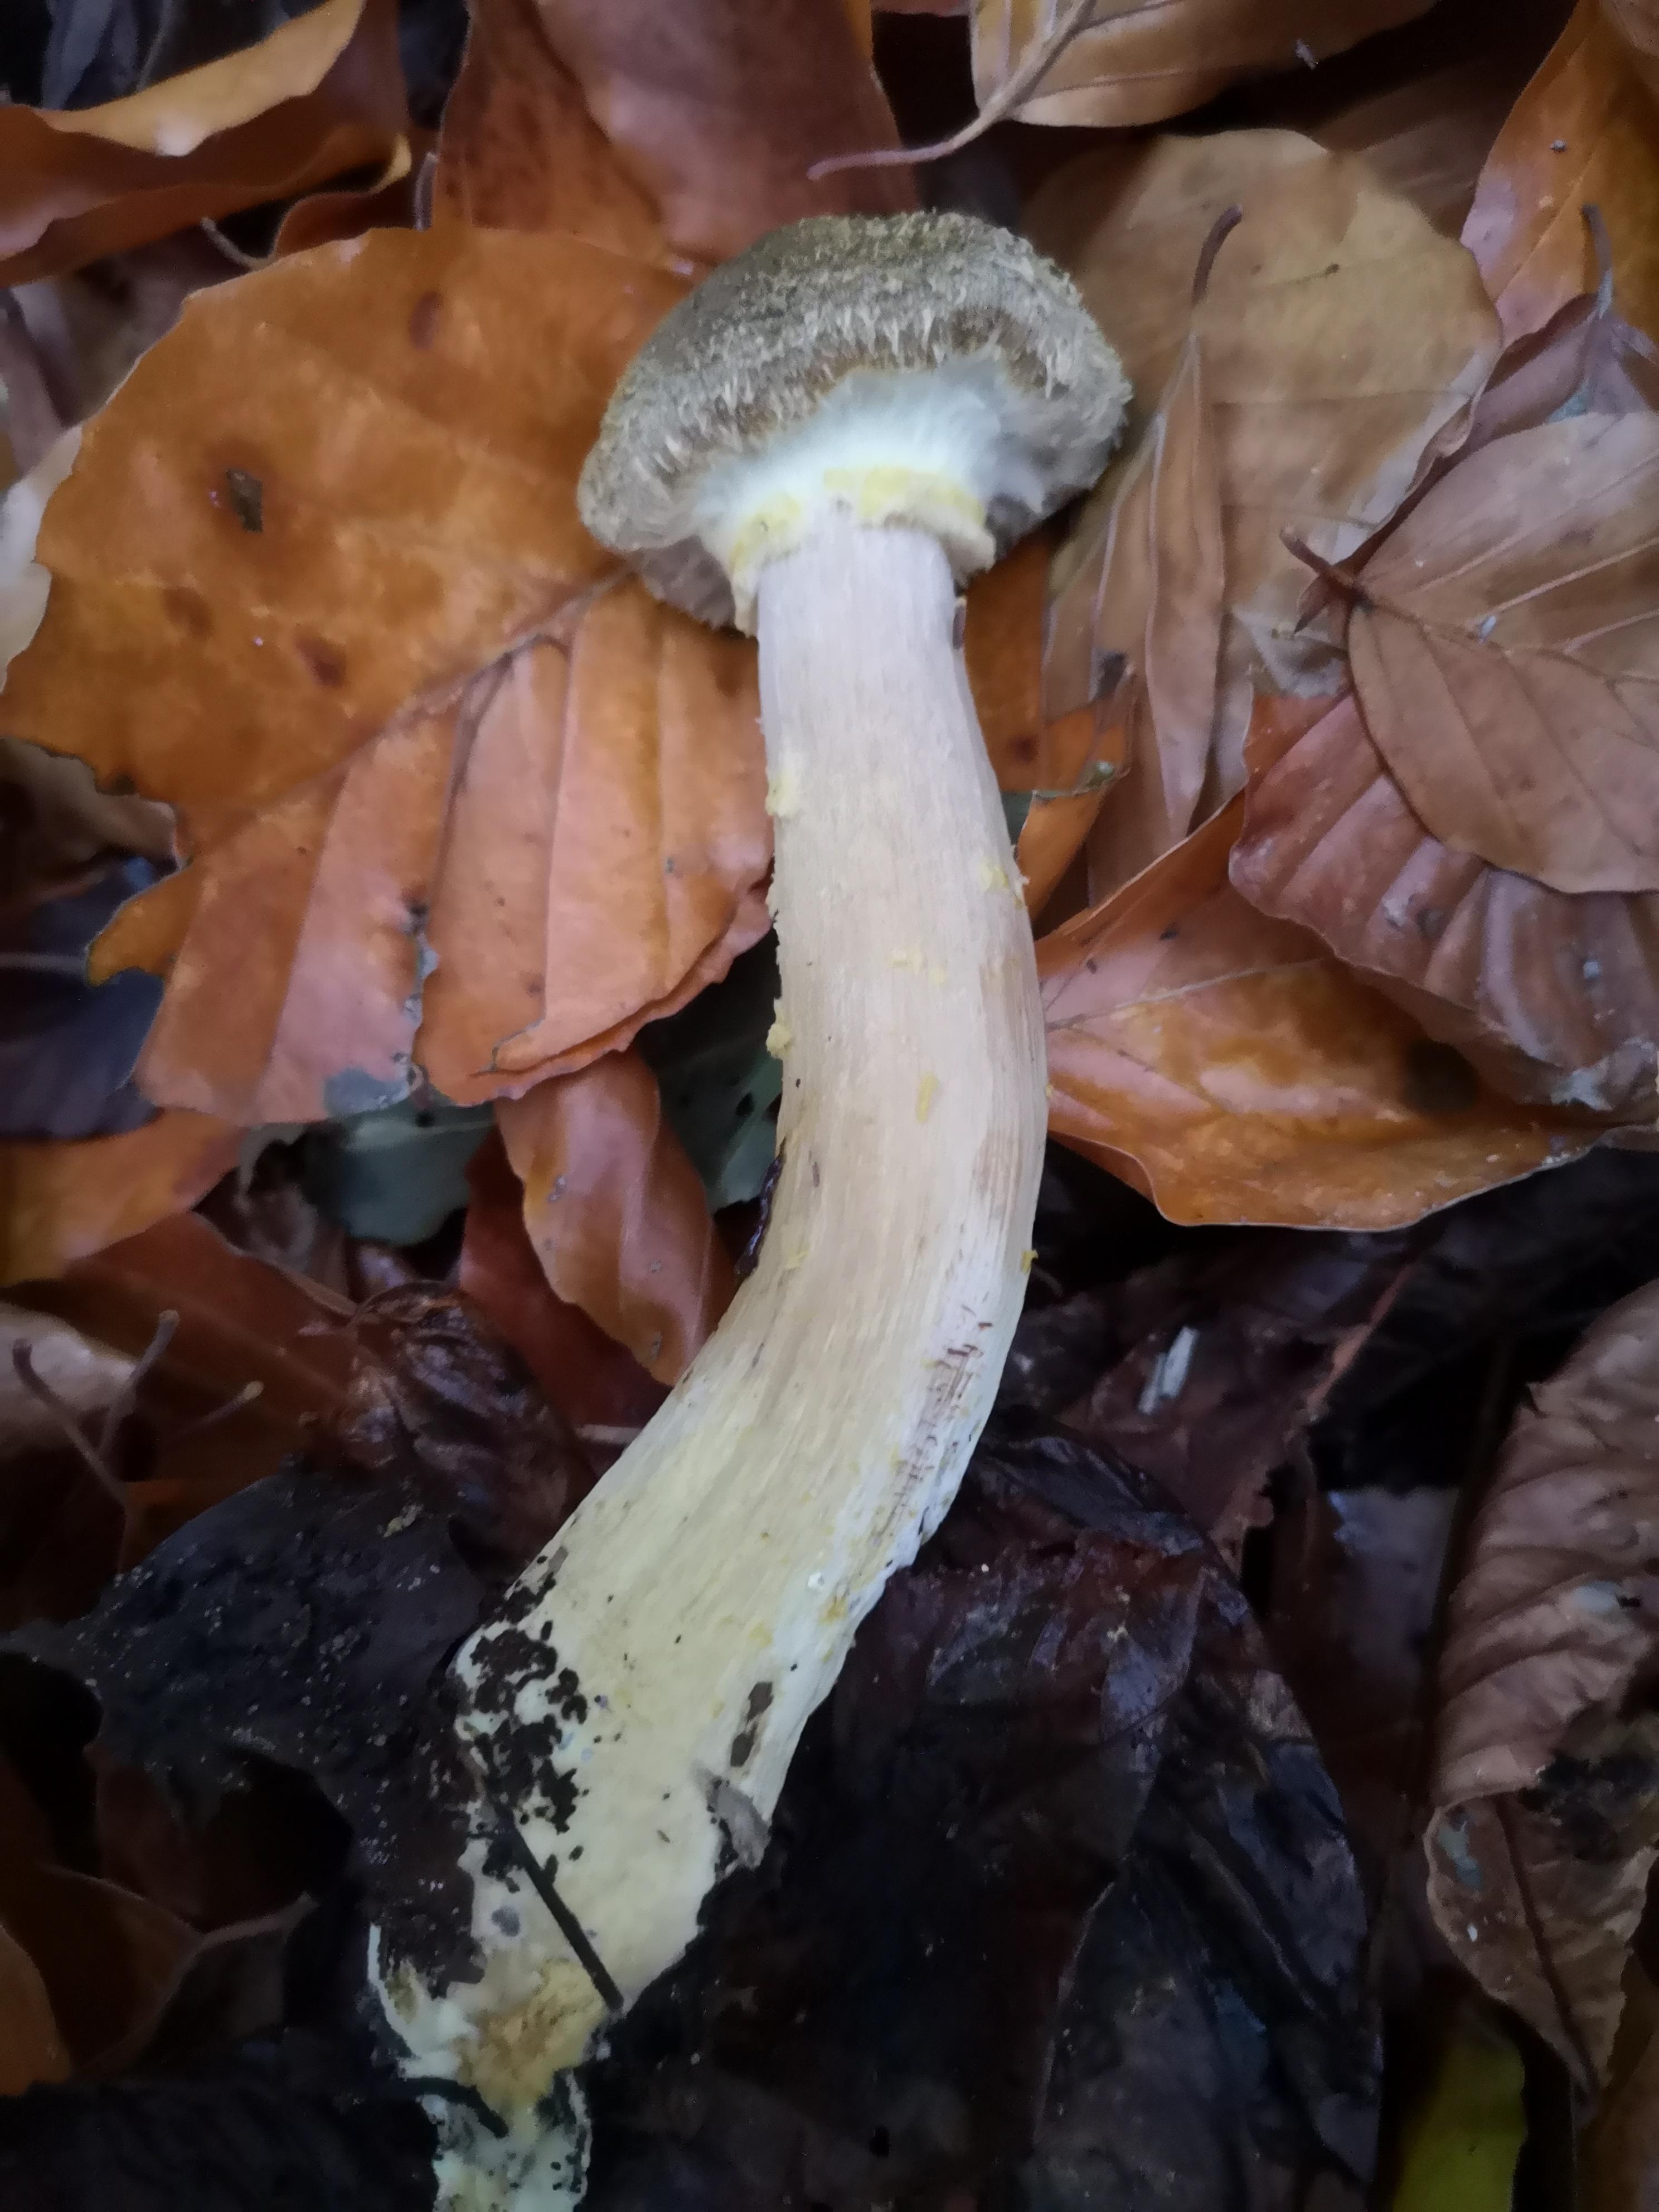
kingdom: Fungi
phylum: Basidiomycota
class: Agaricomycetes
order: Agaricales
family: Physalacriaceae
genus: Armillaria
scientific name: Armillaria lutea
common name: køllestokket honningsvamp
